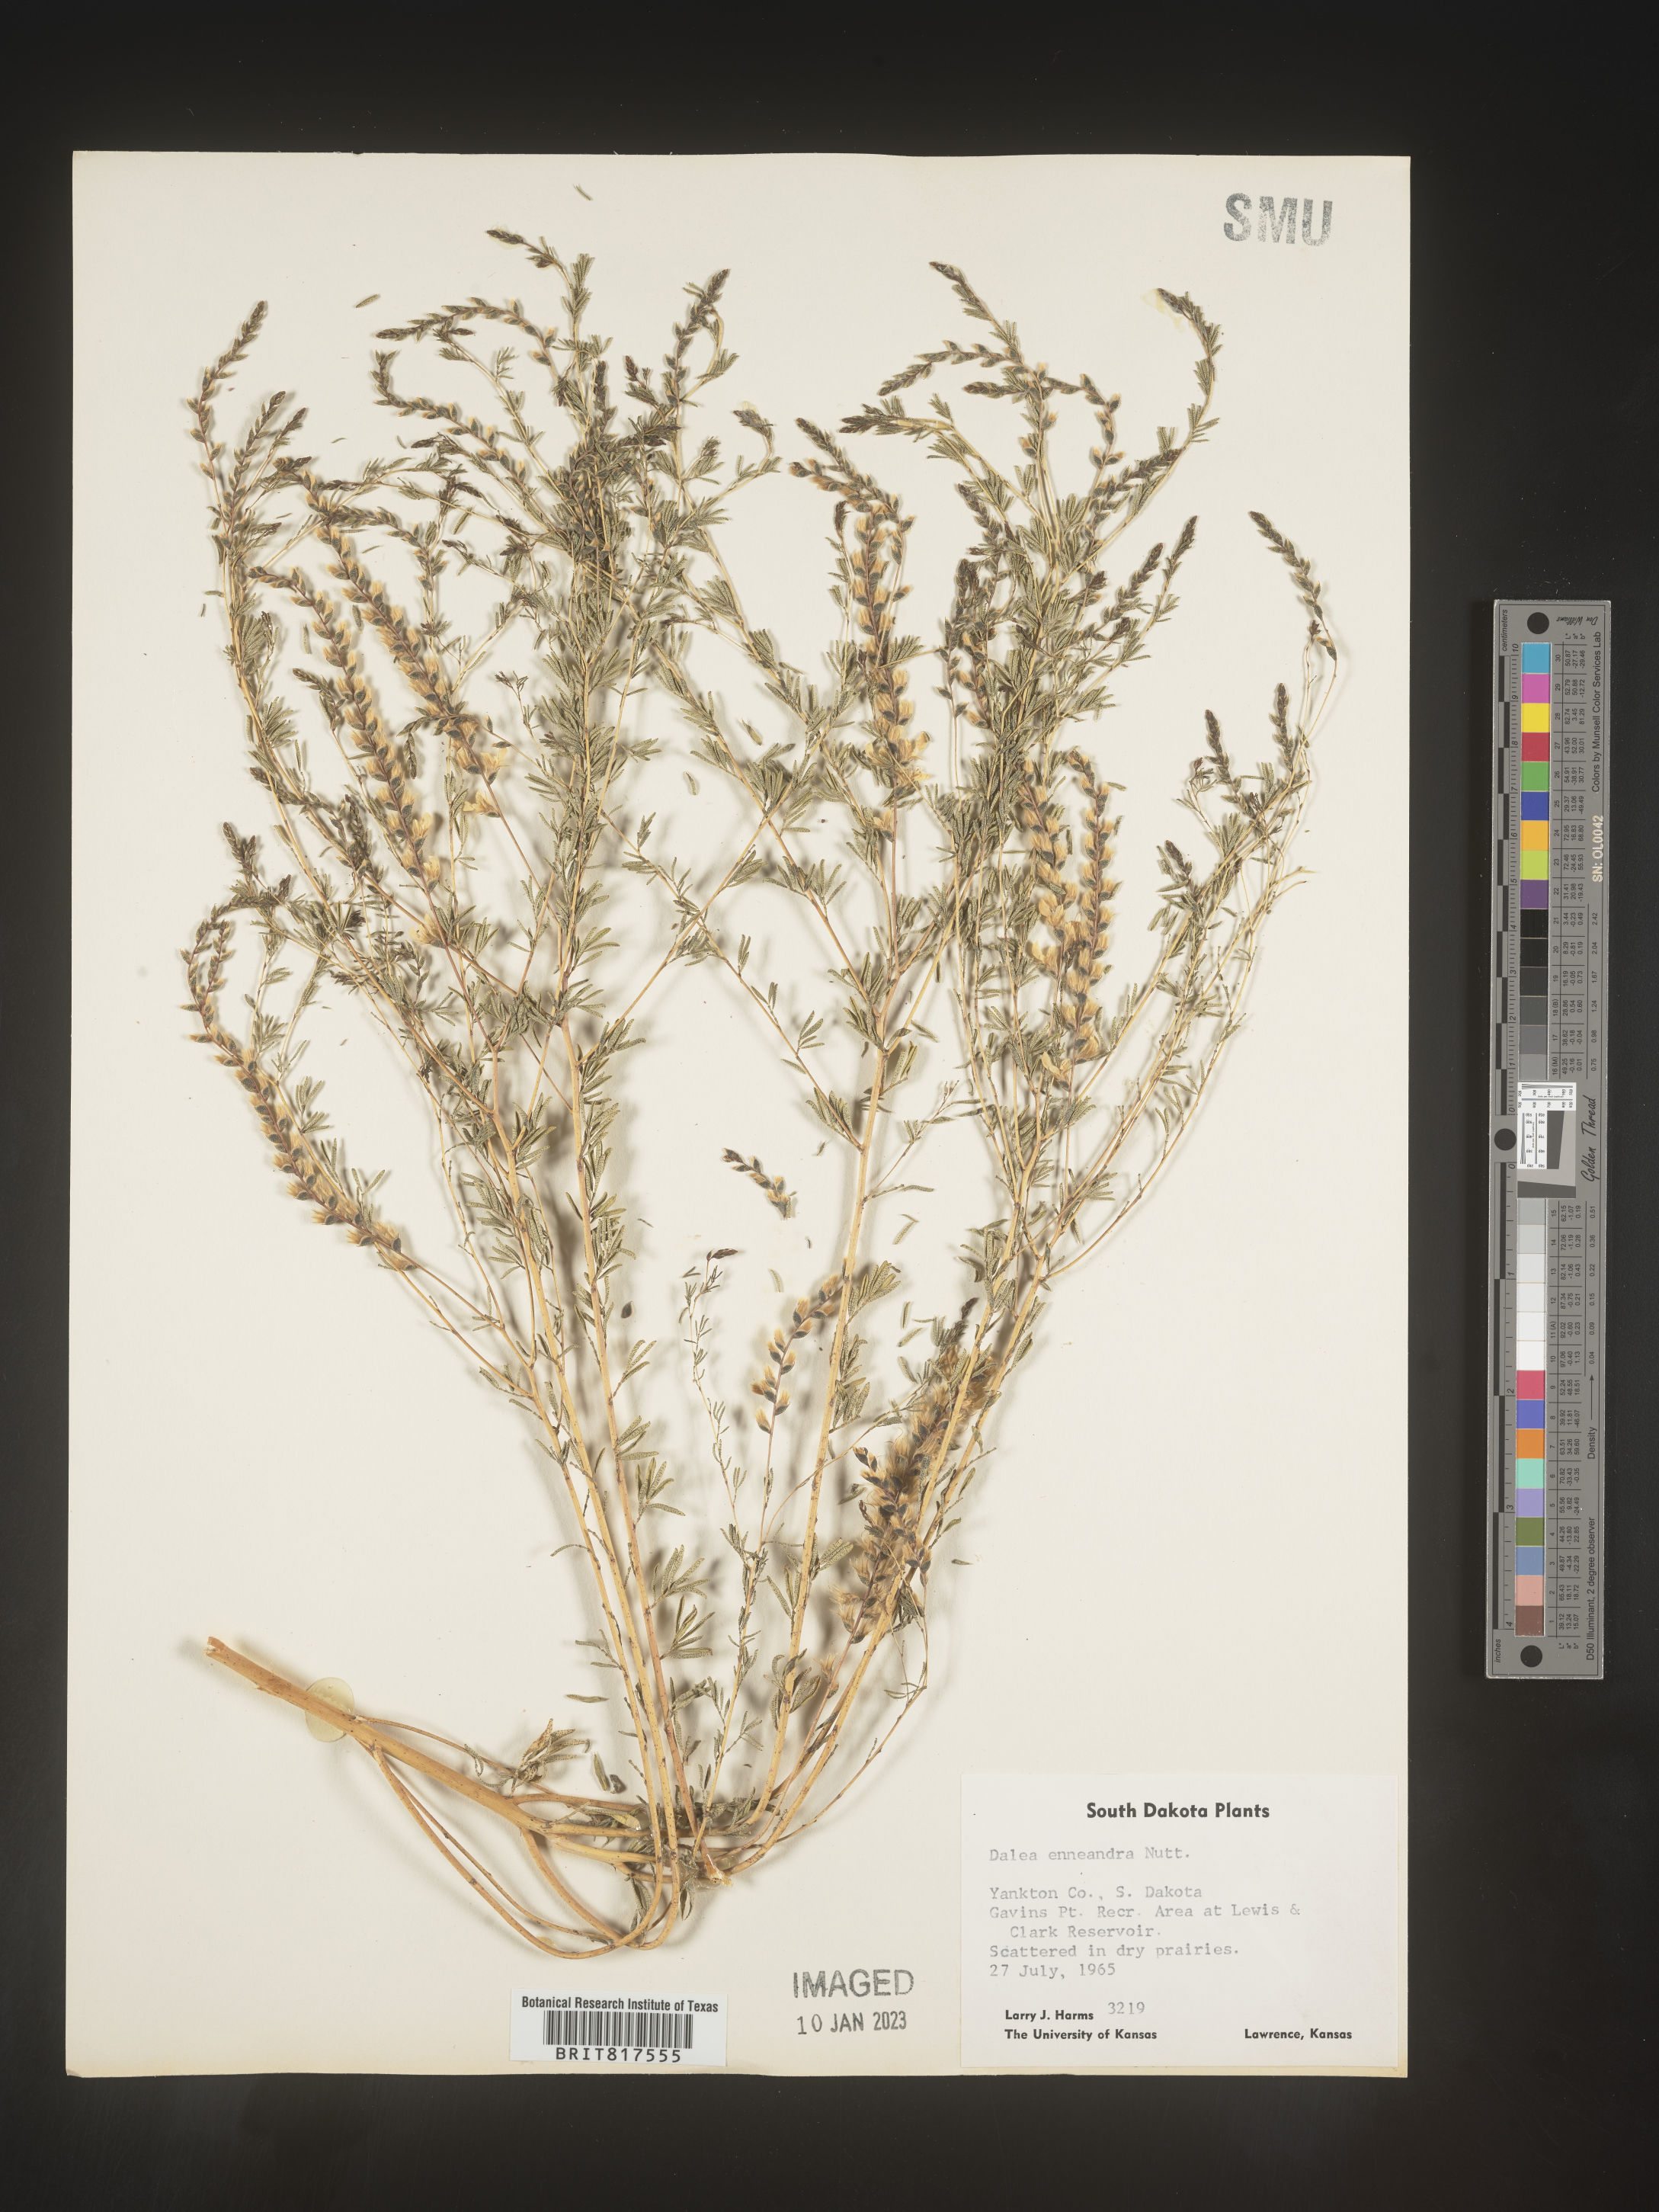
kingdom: Plantae
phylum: Tracheophyta
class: Magnoliopsida
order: Fabales
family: Fabaceae
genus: Dalea
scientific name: Dalea enneandra
